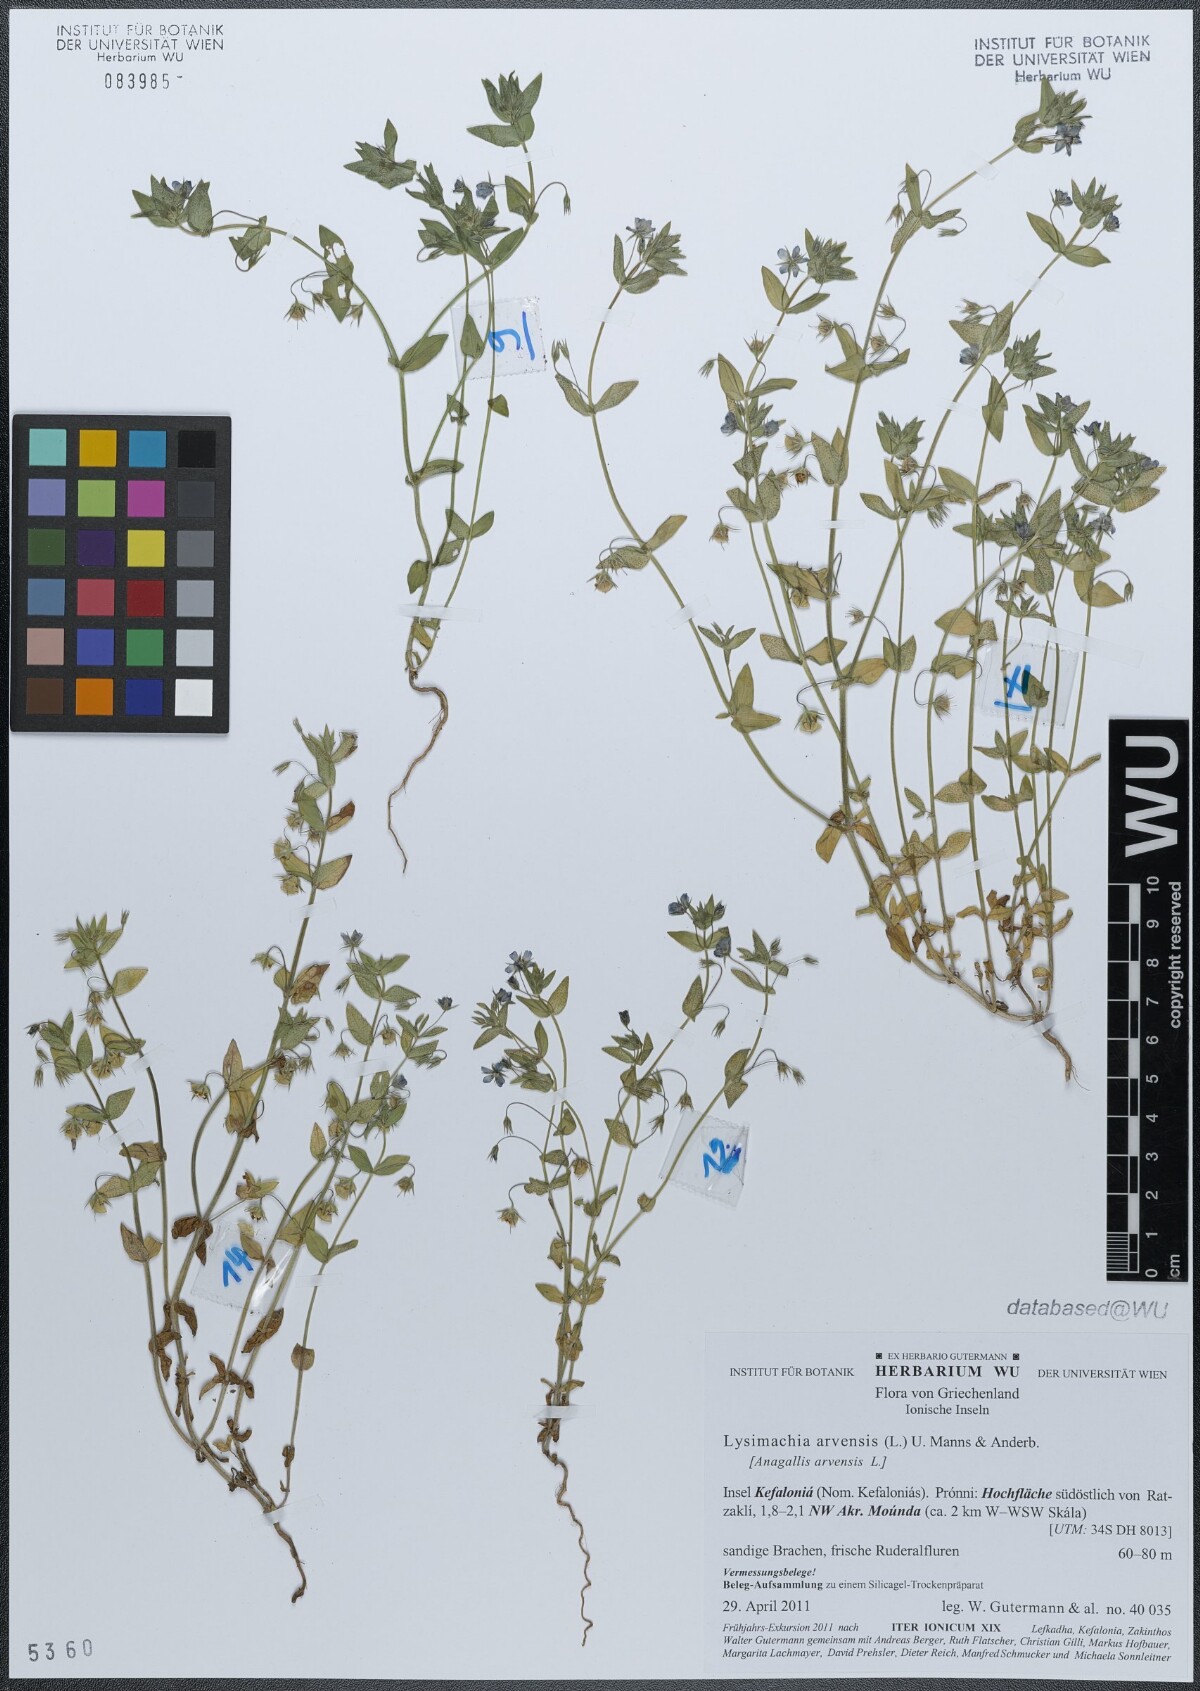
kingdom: Plantae
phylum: Tracheophyta
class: Magnoliopsida
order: Ericales
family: Primulaceae
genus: Lysimachia
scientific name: Lysimachia arvensis
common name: Scarlet pimpernel
